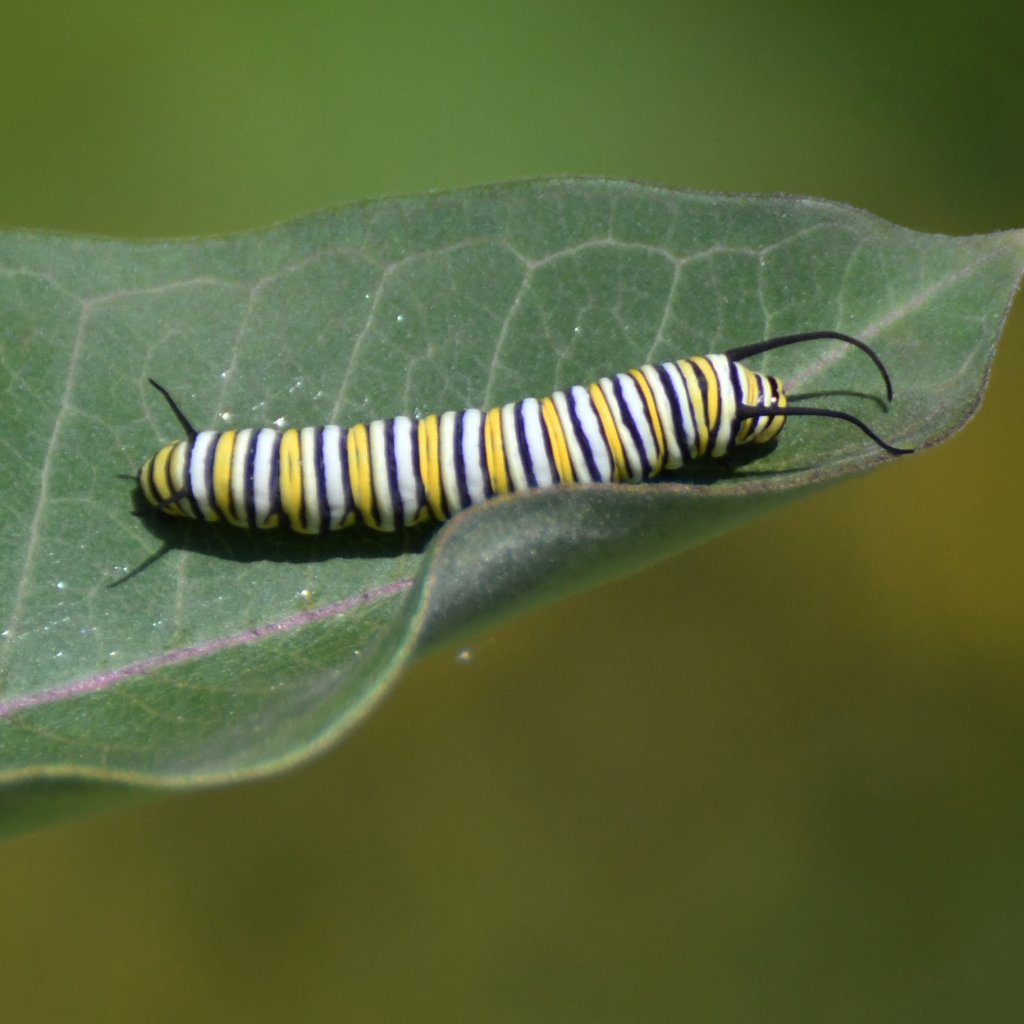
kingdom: Animalia
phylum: Arthropoda
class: Insecta
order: Lepidoptera
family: Nymphalidae
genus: Danaus
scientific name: Danaus plexippus
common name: Monarch
